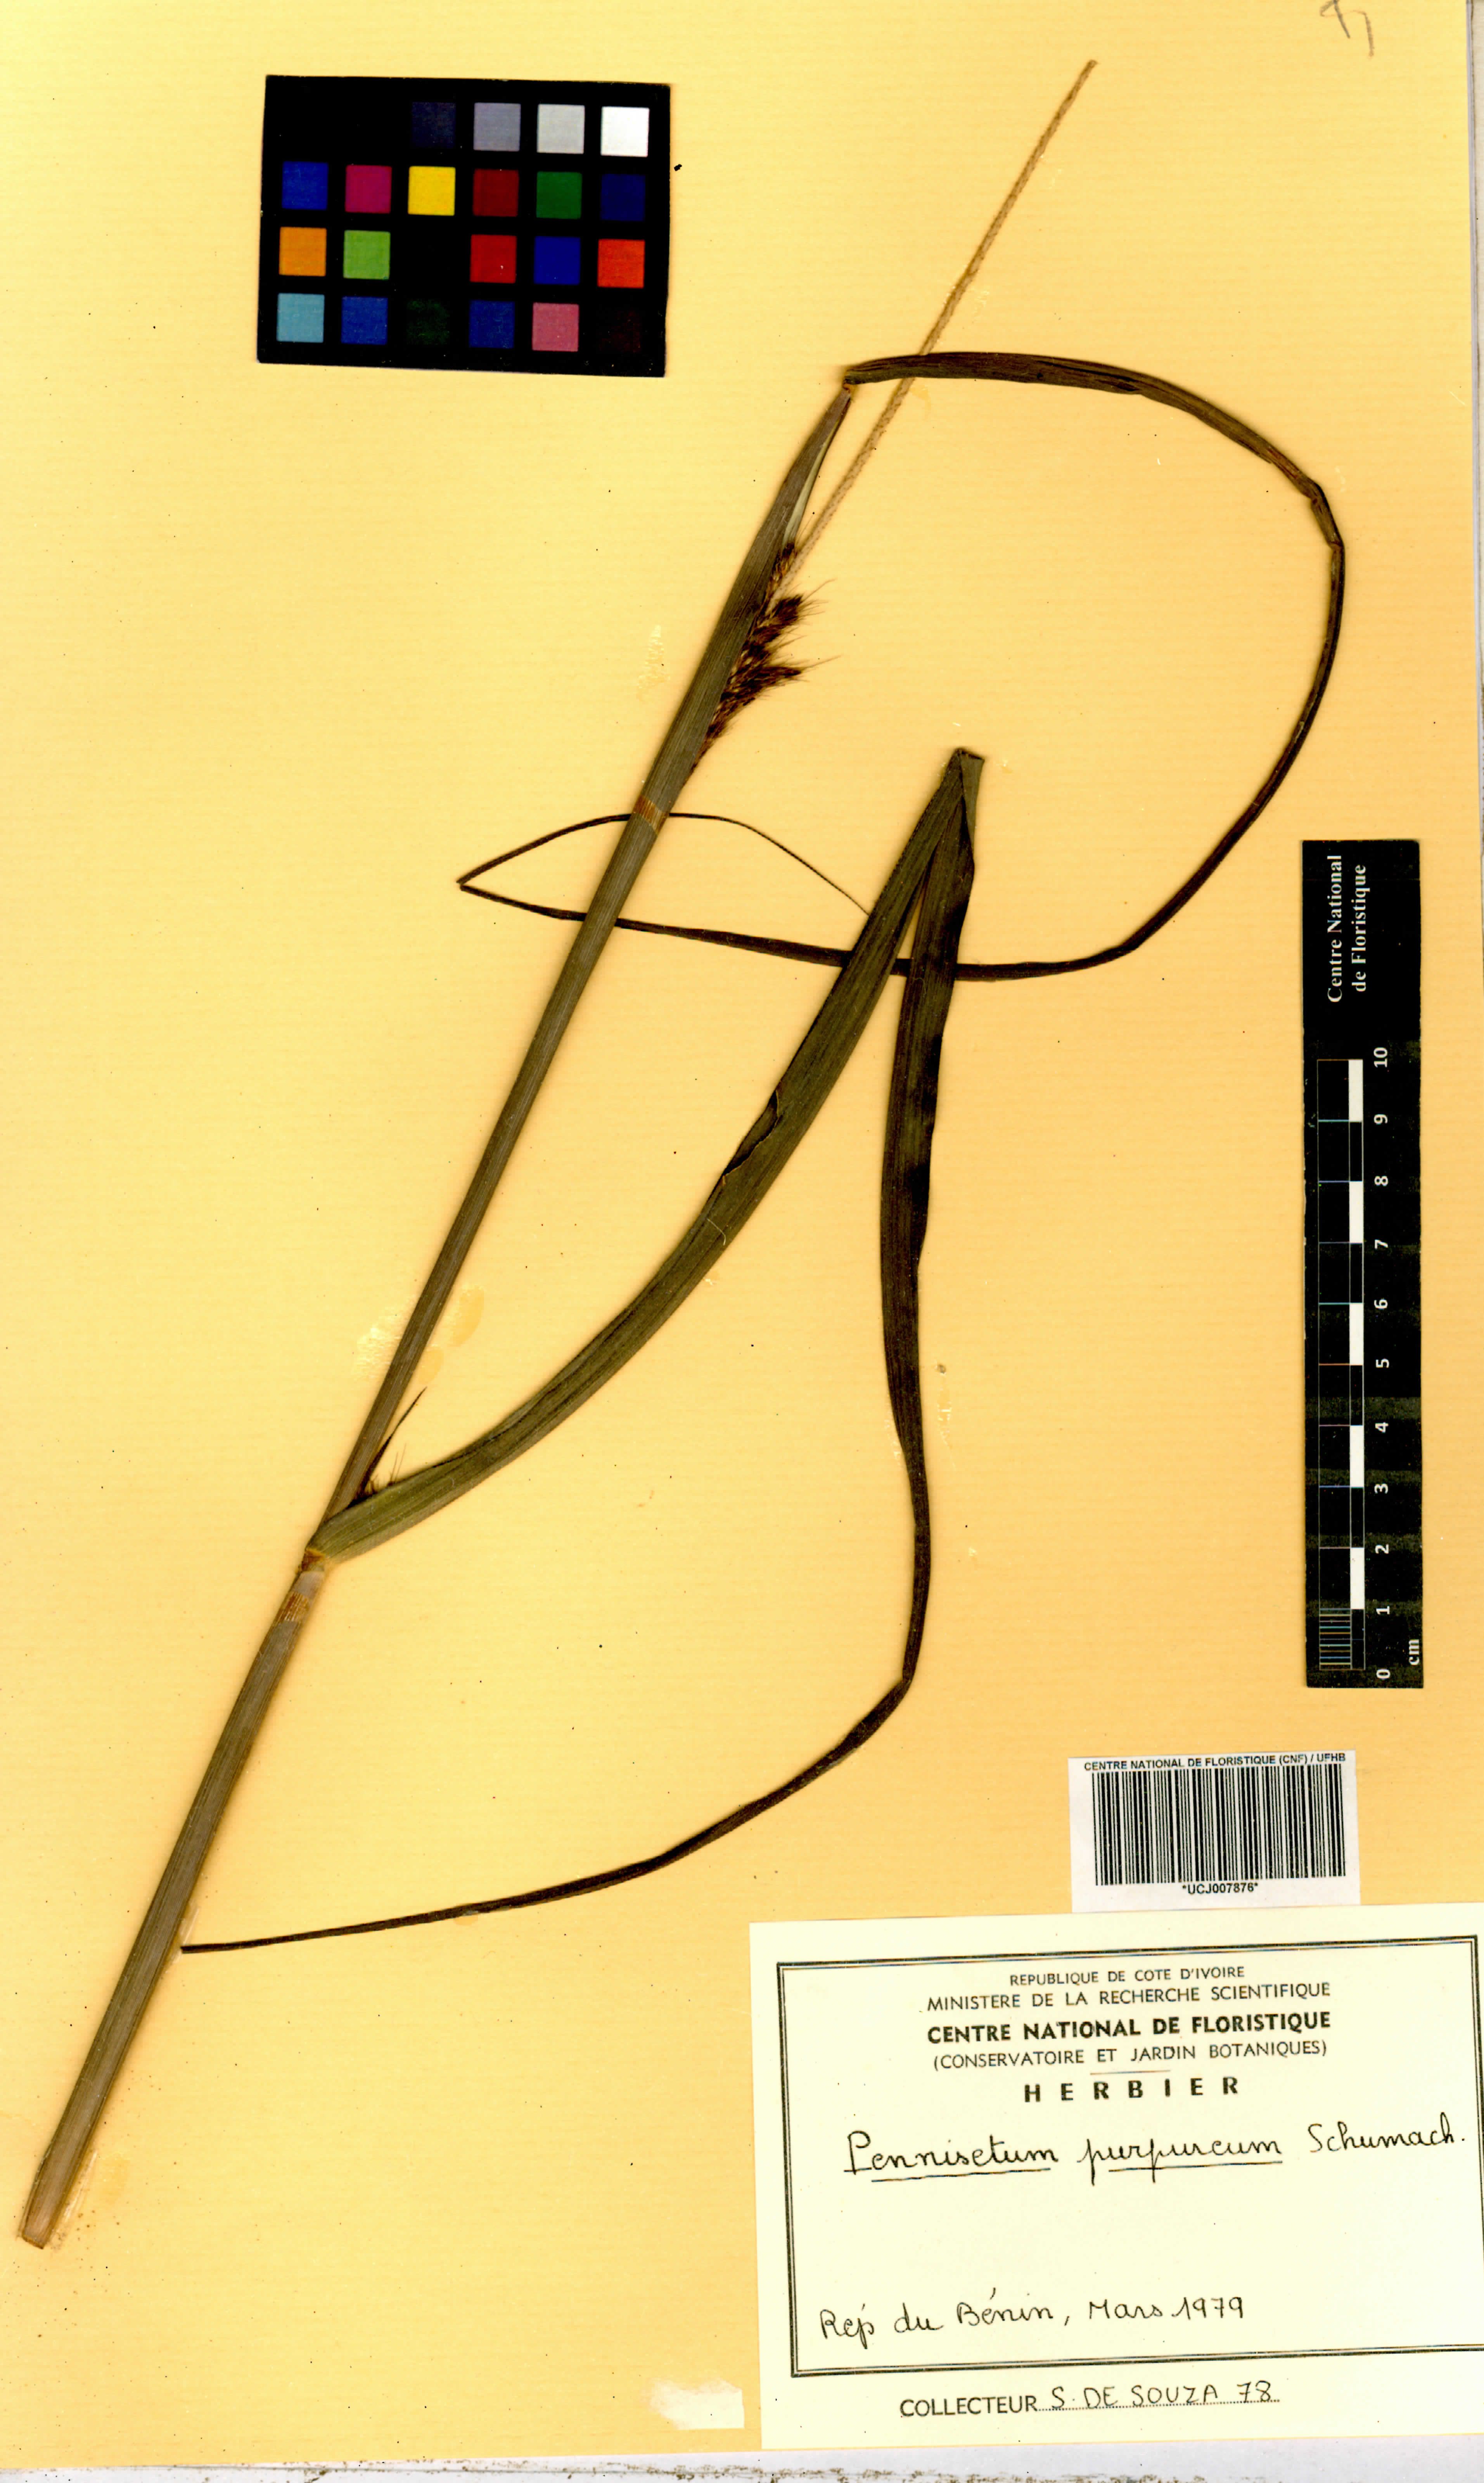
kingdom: Plantae
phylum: Tracheophyta
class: Liliopsida
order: Poales
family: Poaceae
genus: Cenchrus
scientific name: Cenchrus purpureus
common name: Elephant grass
